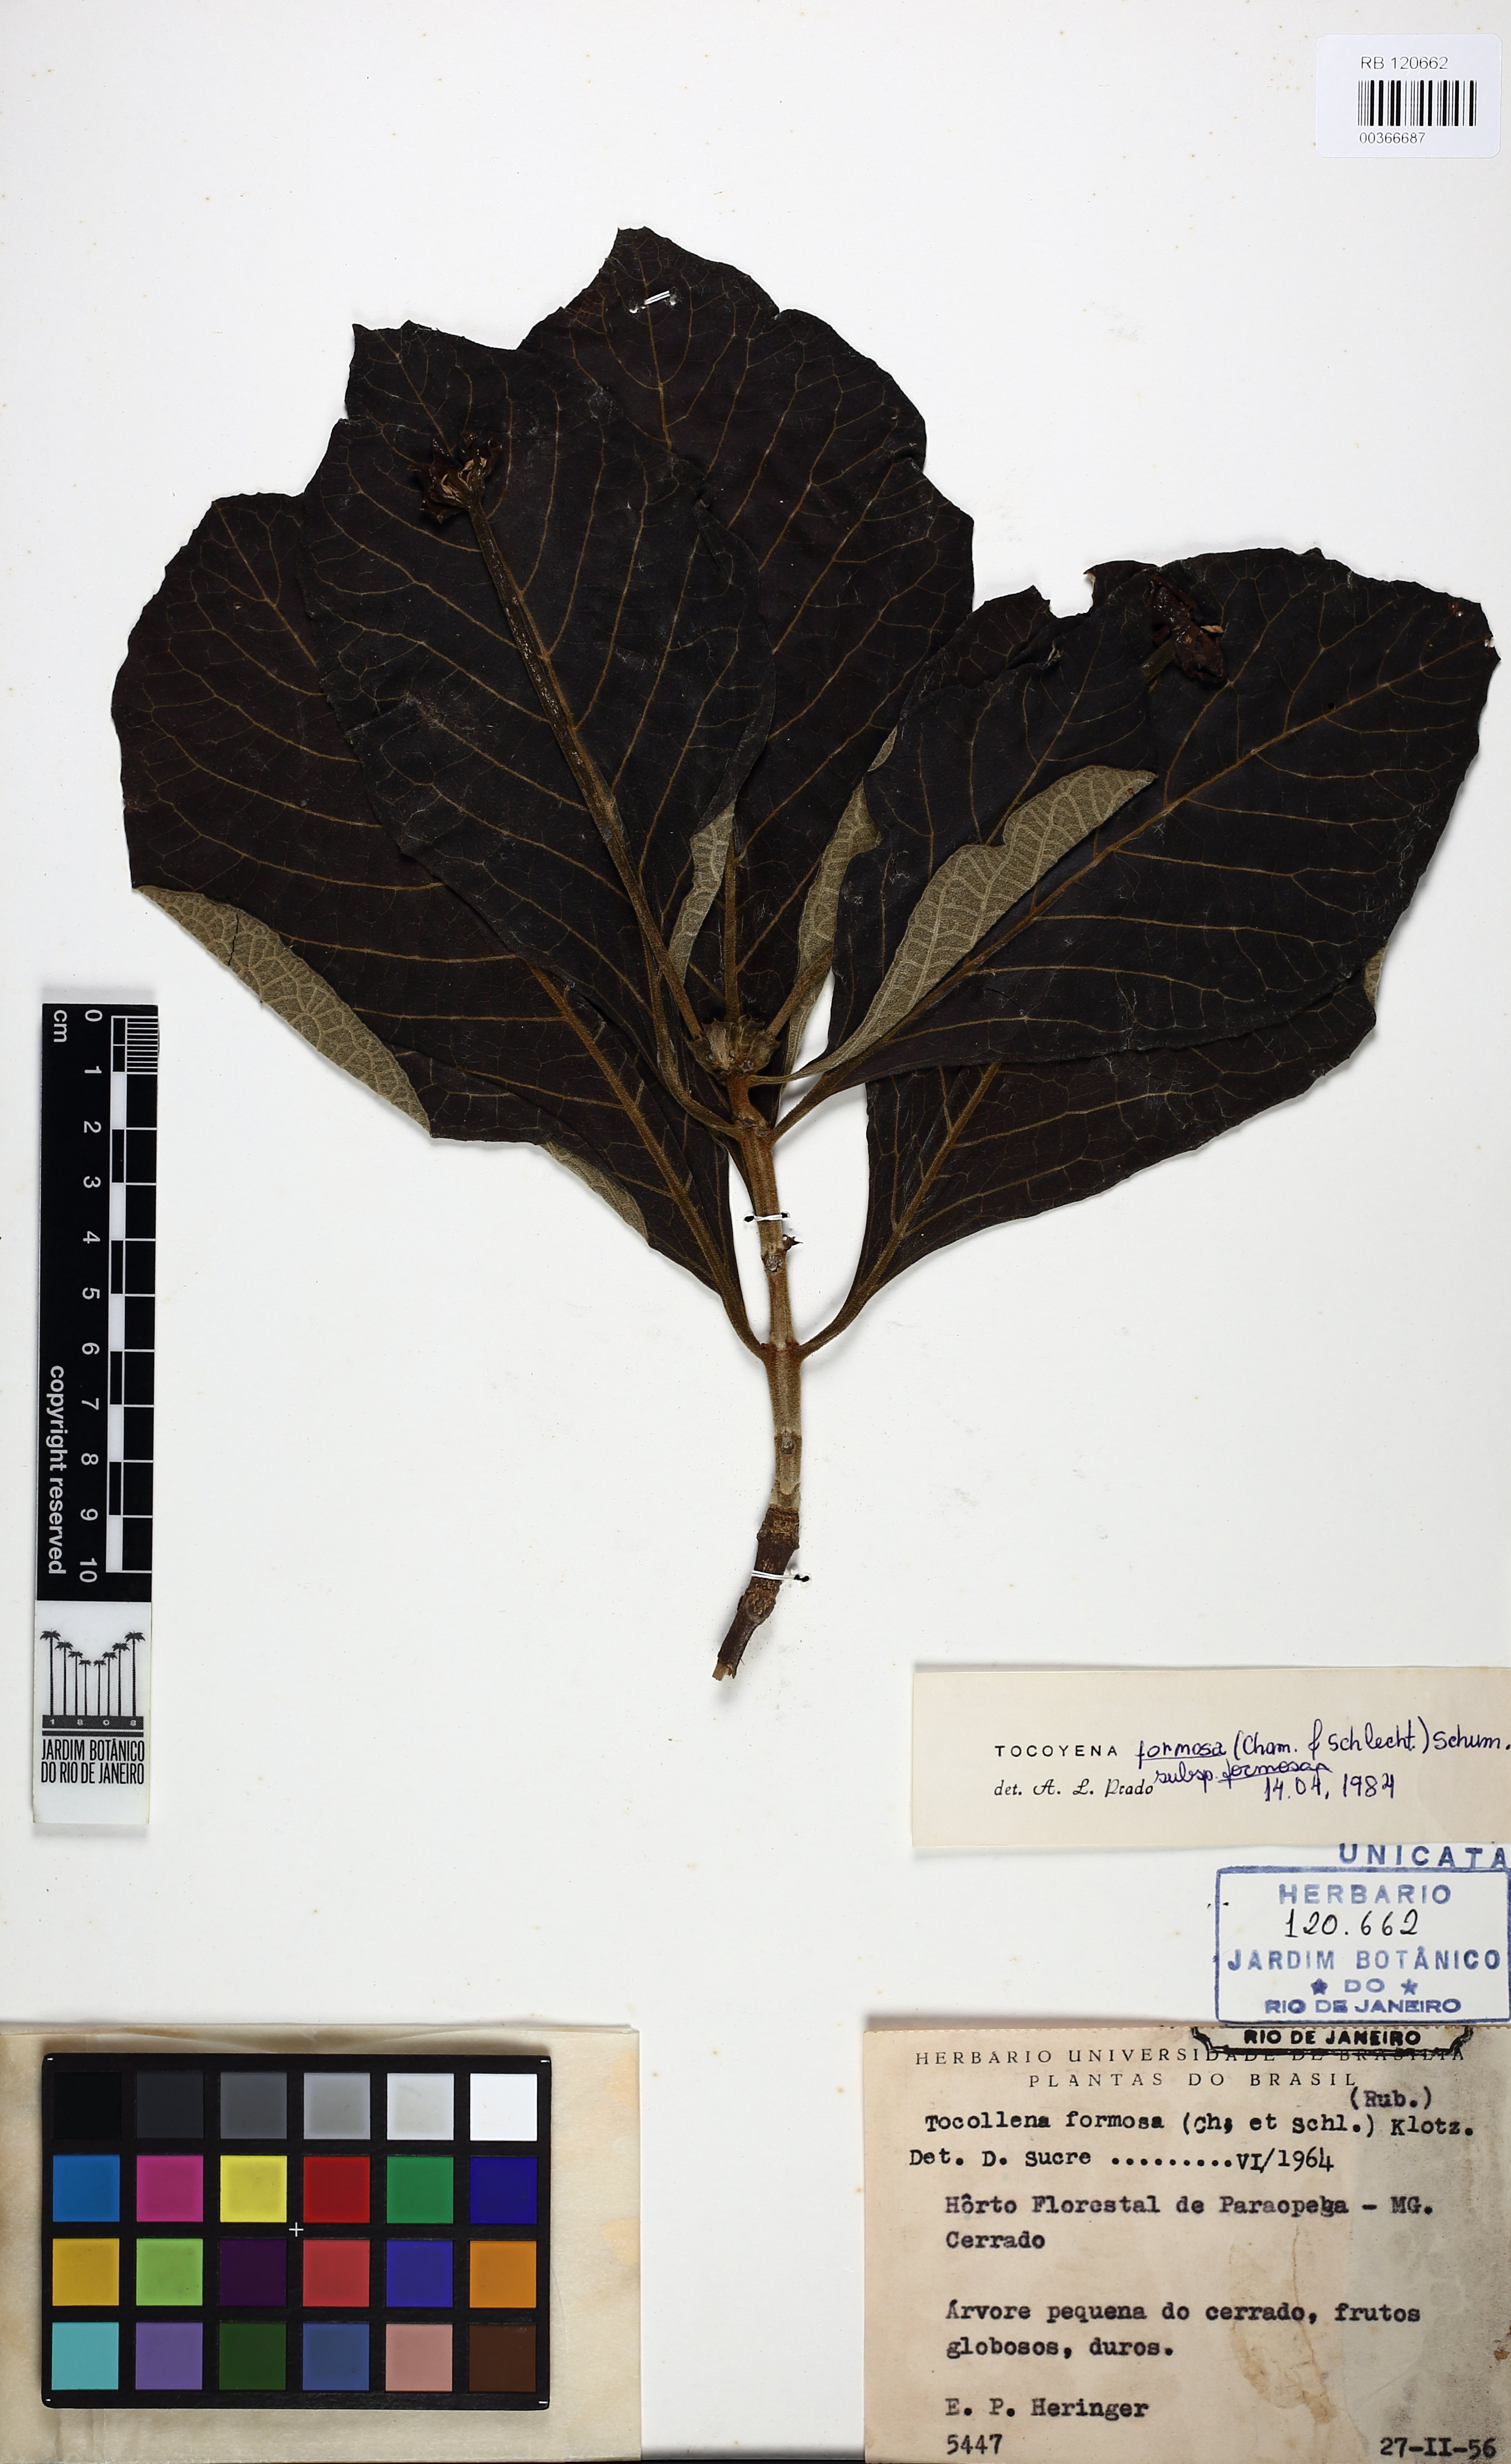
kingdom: Plantae
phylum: Tracheophyta
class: Magnoliopsida
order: Gentianales
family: Rubiaceae
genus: Tocoyena
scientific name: Tocoyena formosa
